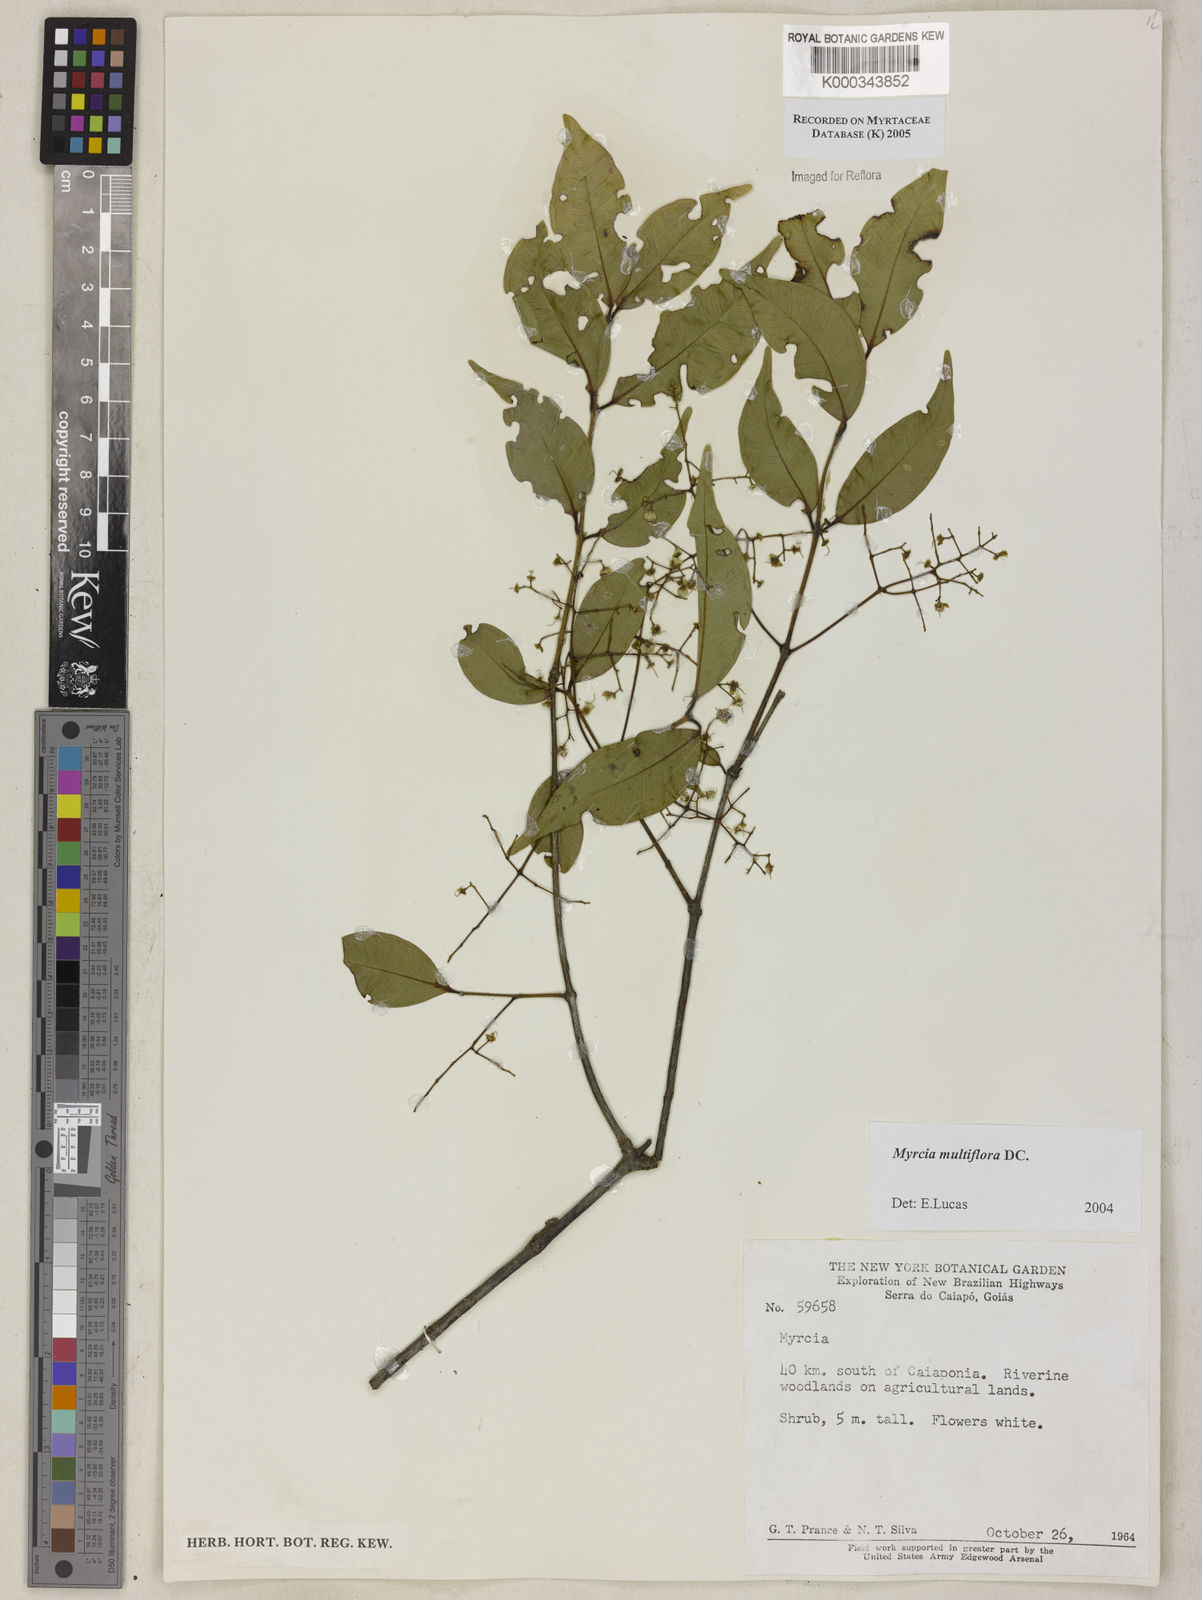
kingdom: Plantae
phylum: Tracheophyta
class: Magnoliopsida
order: Myrtales
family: Myrtaceae
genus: Myrcia
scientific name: Myrcia multiflora
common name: Pedra hume
